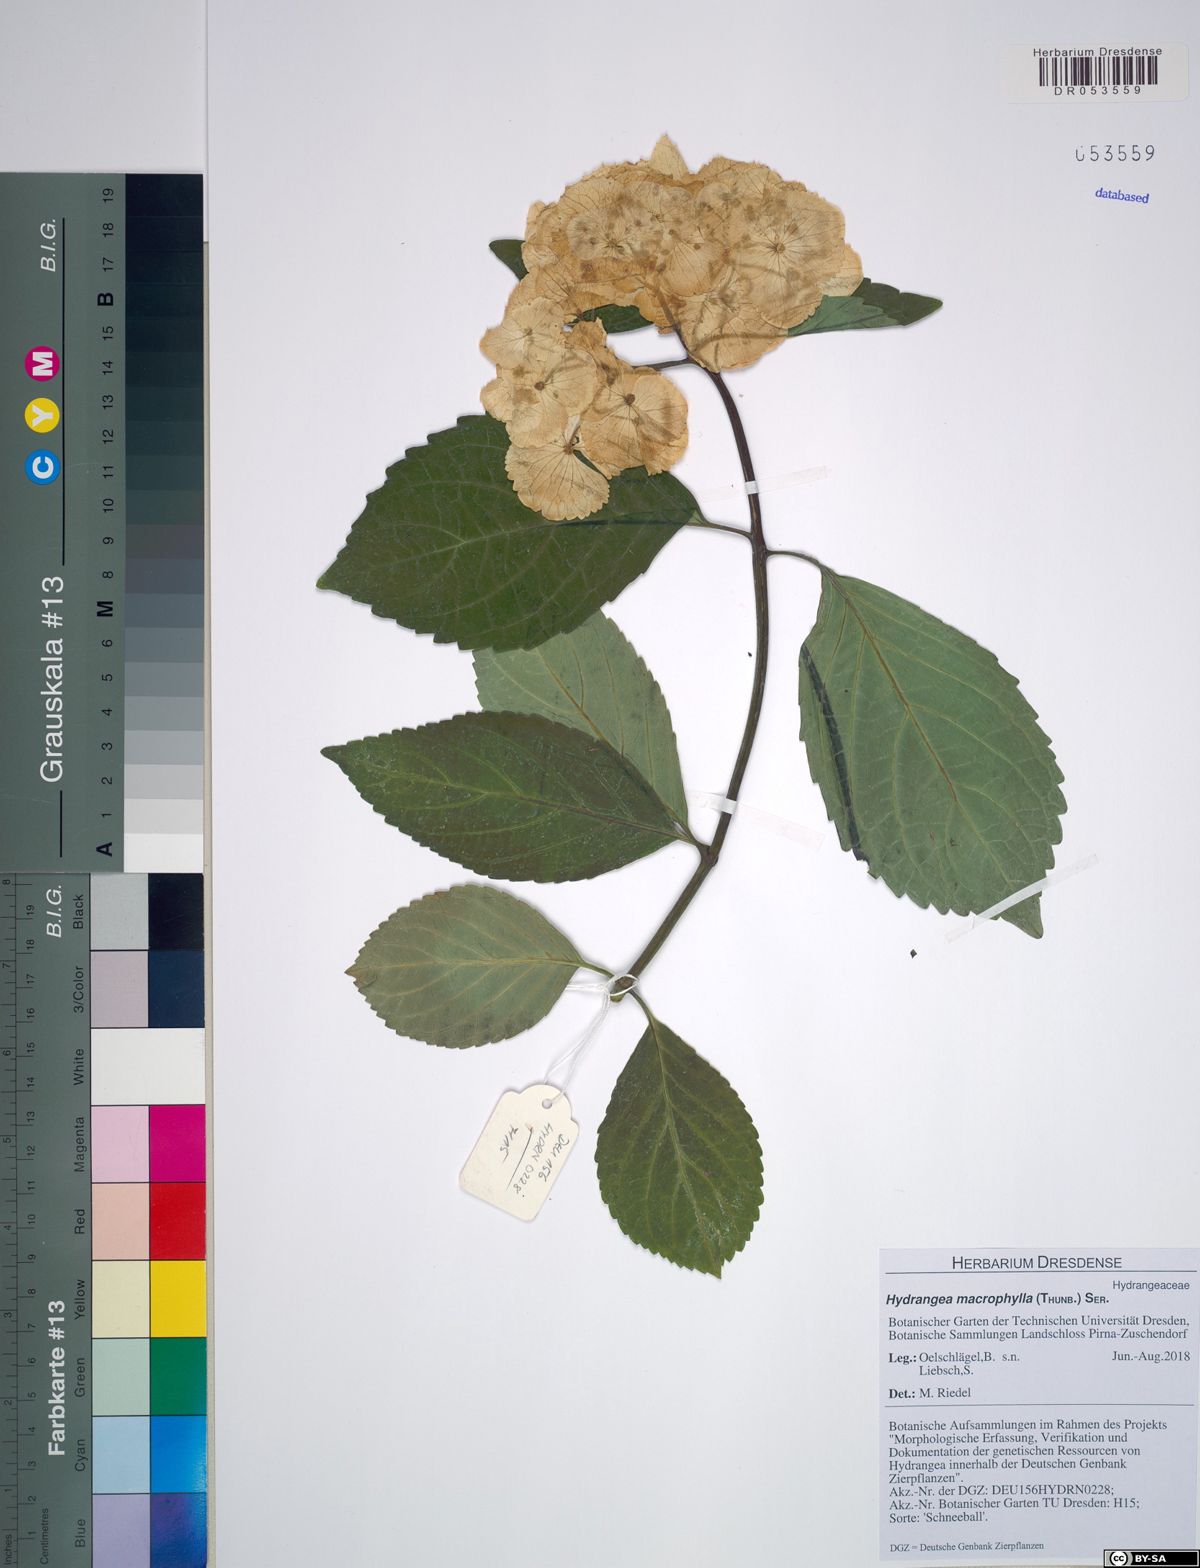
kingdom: Plantae
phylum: Tracheophyta
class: Magnoliopsida
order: Cornales
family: Hydrangeaceae
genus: Hydrangea
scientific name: Hydrangea macrophylla
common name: Hydrangea
